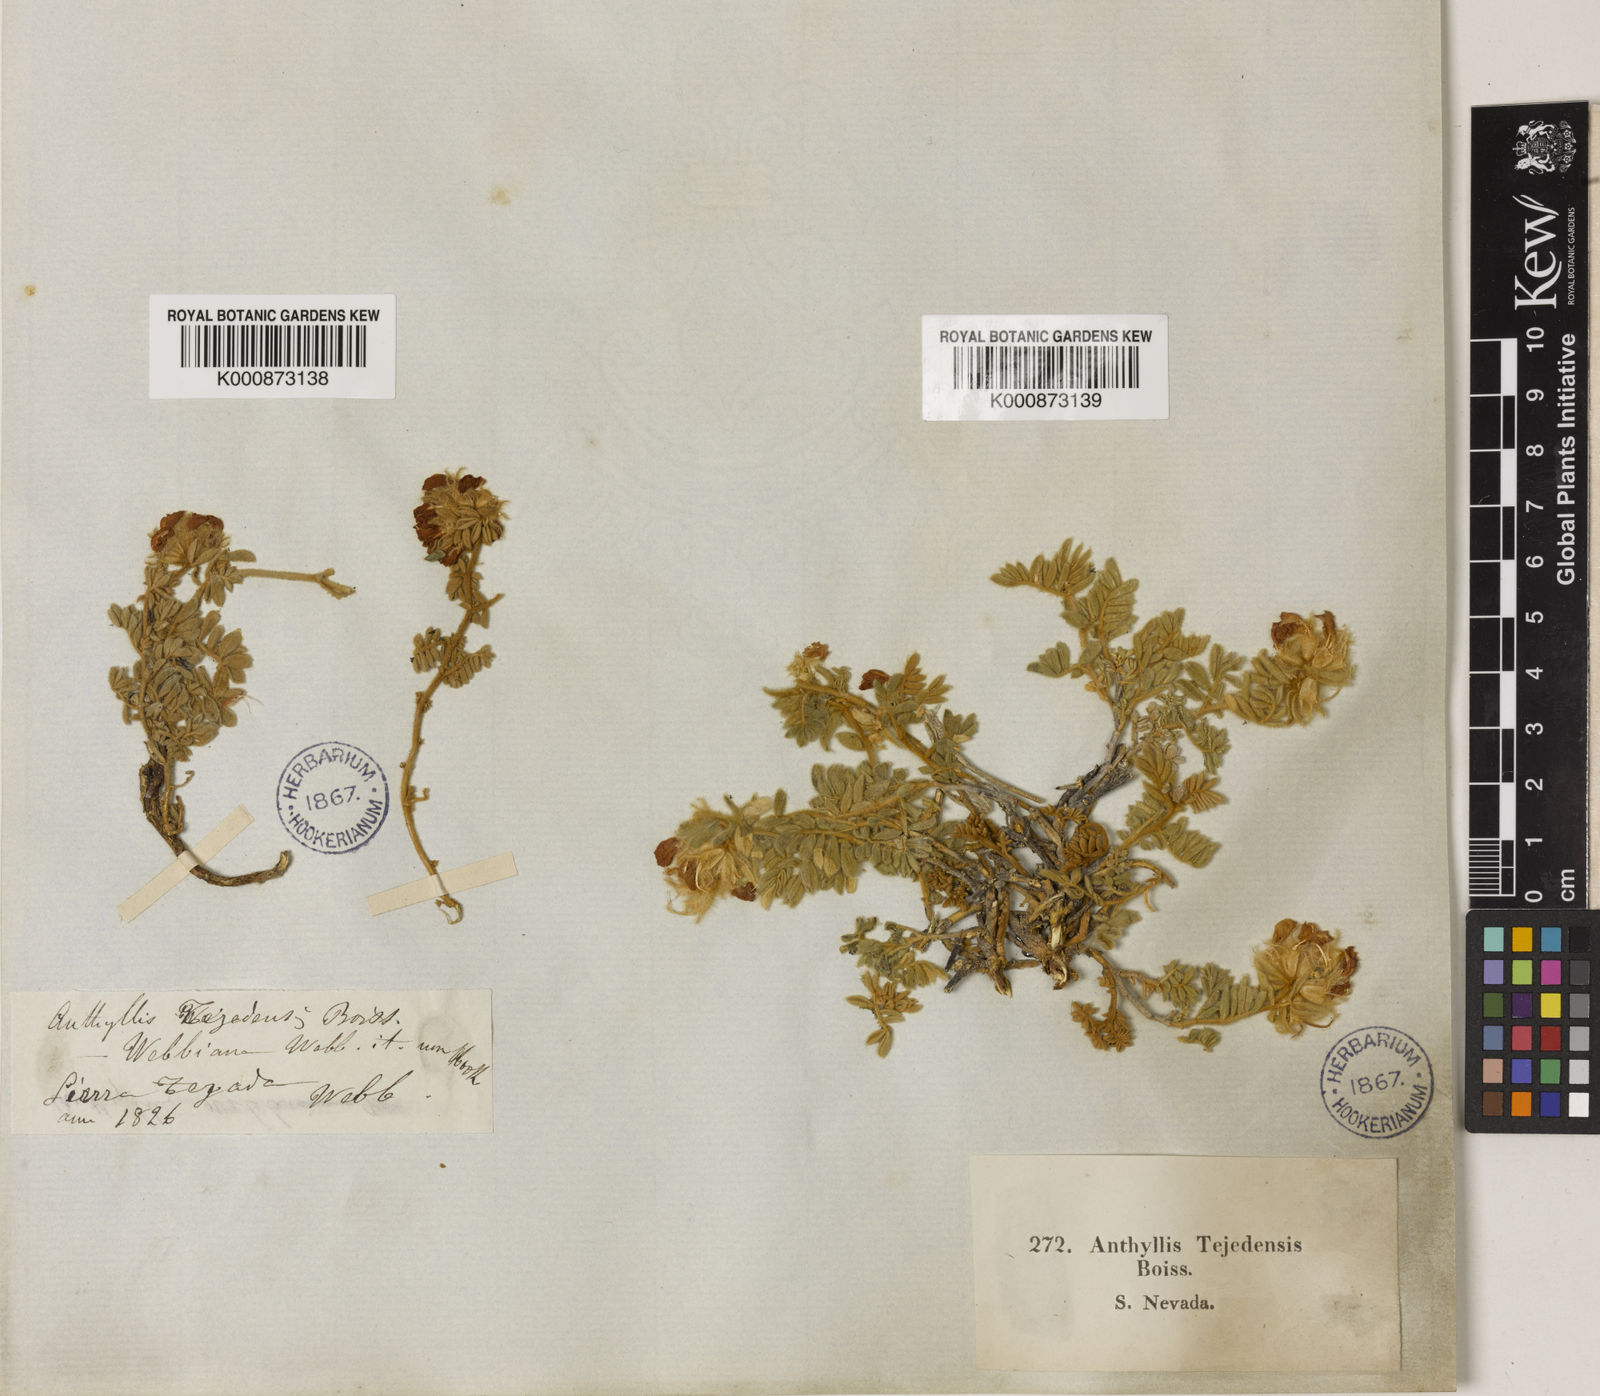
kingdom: Plantae
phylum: Tracheophyta
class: Magnoliopsida
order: Fabales
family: Fabaceae
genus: Anthyllis
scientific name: Anthyllis tejedensis
